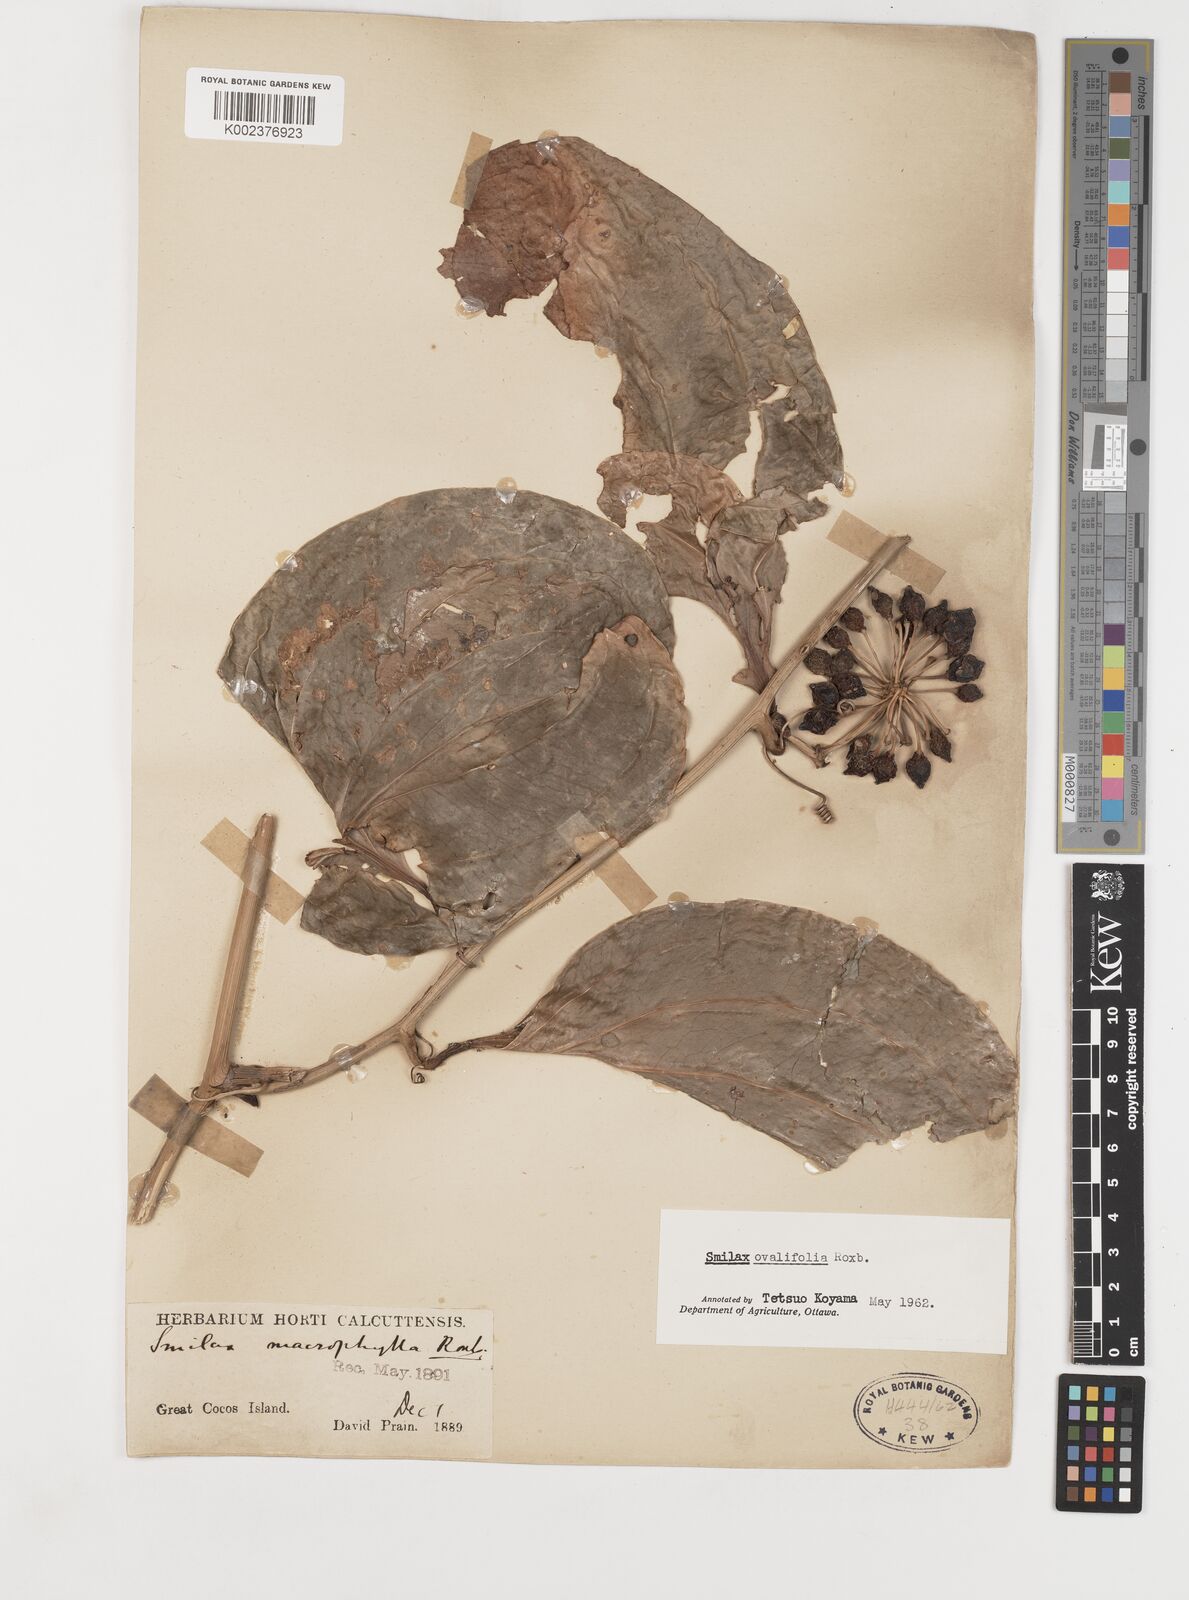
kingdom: Plantae
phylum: Tracheophyta
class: Liliopsida
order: Liliales
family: Smilacaceae
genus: Smilax
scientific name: Smilax ovalifolia
